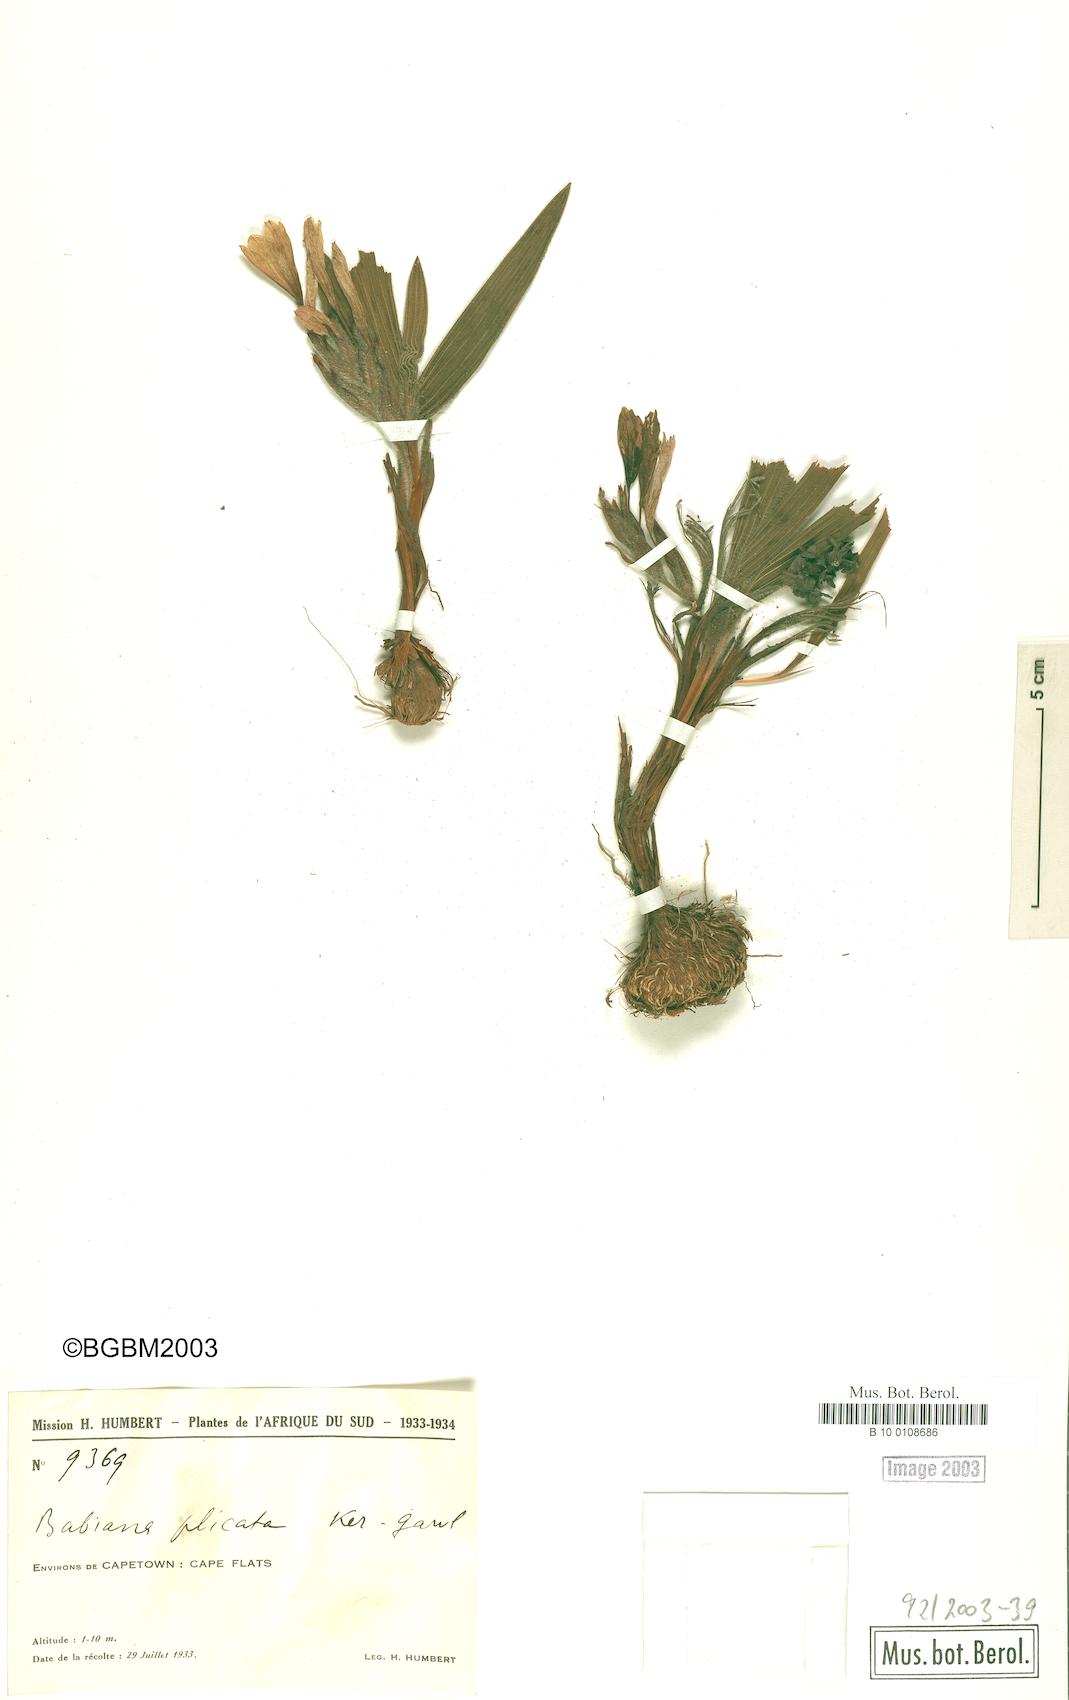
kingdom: Plantae
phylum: Tracheophyta
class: Liliopsida
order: Asparagales
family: Iridaceae
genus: Babiana
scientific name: Babiana fragrans
